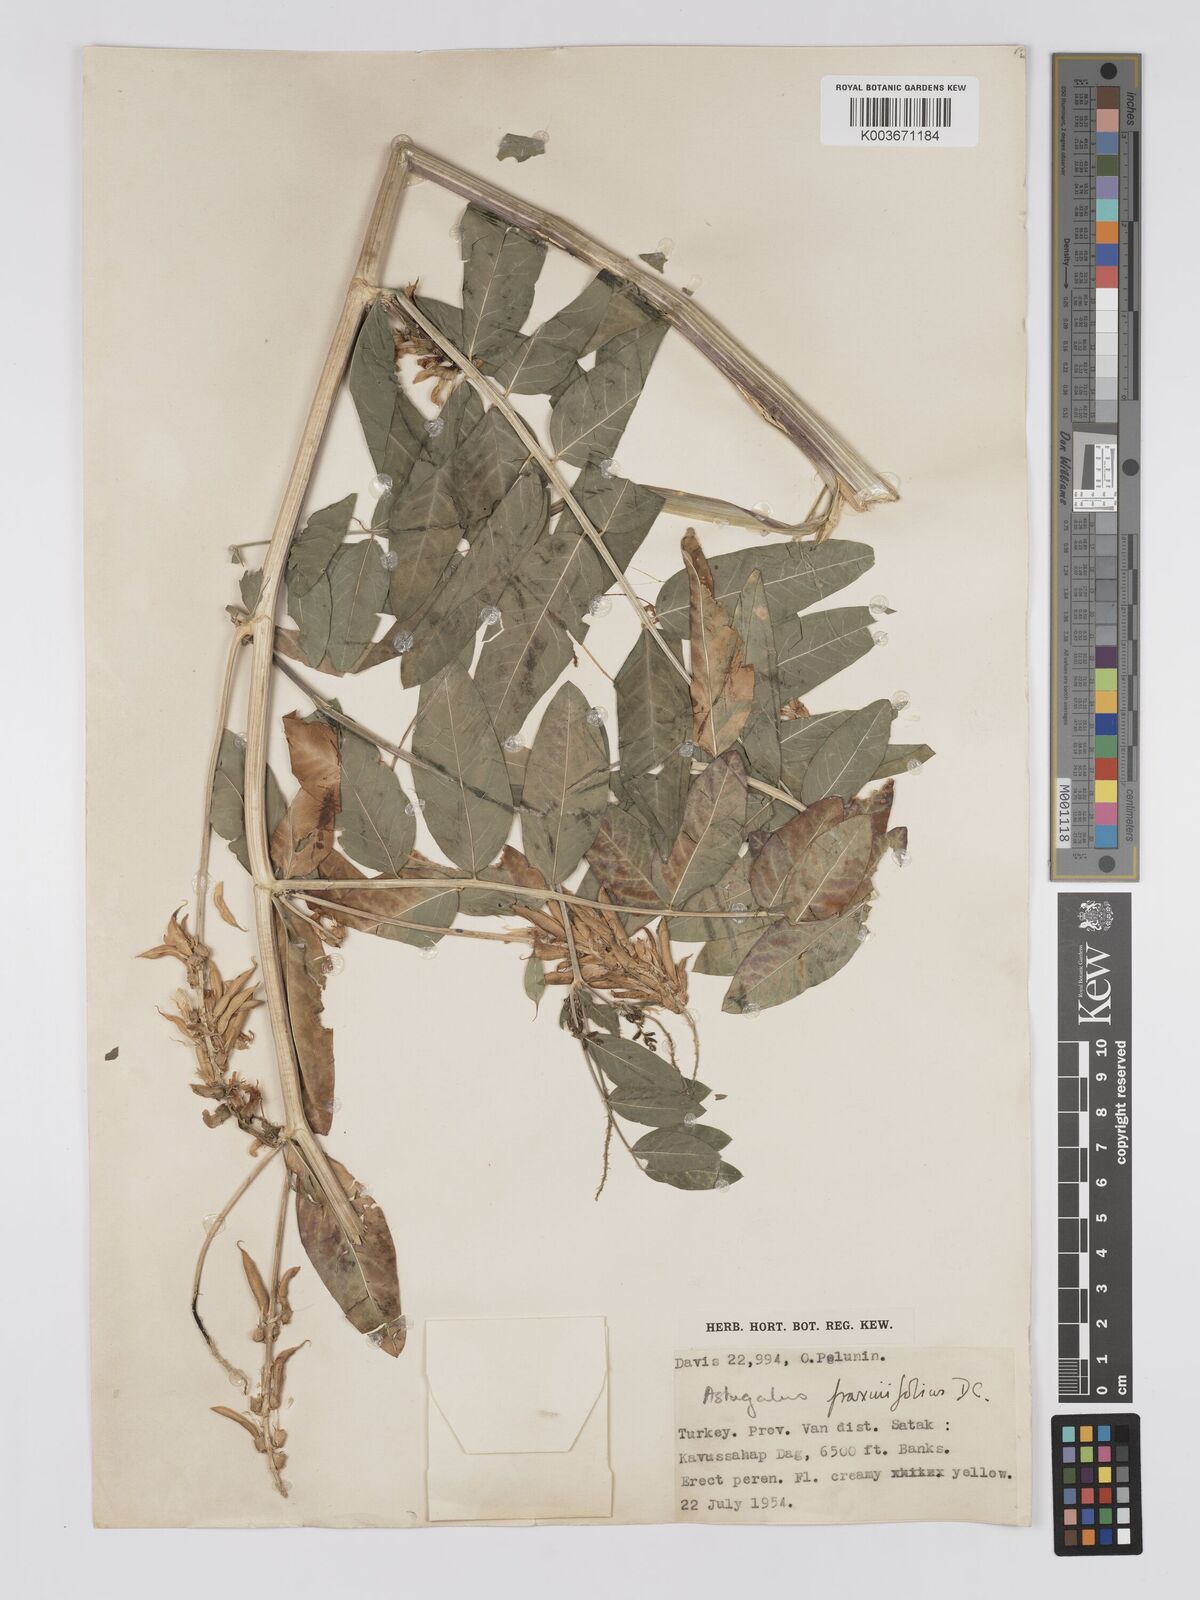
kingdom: Plantae
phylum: Tracheophyta
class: Magnoliopsida
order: Fabales
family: Fabaceae
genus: Astragalus
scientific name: Astragalus fraxinifolius
